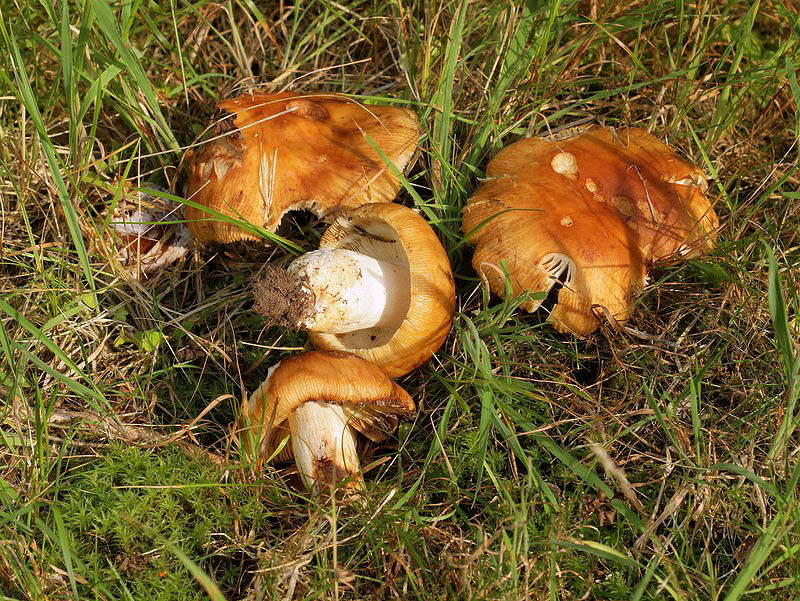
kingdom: Fungi
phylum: Basidiomycota
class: Agaricomycetes
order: Russulales
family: Russulaceae
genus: Russula
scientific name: Russula foetens
